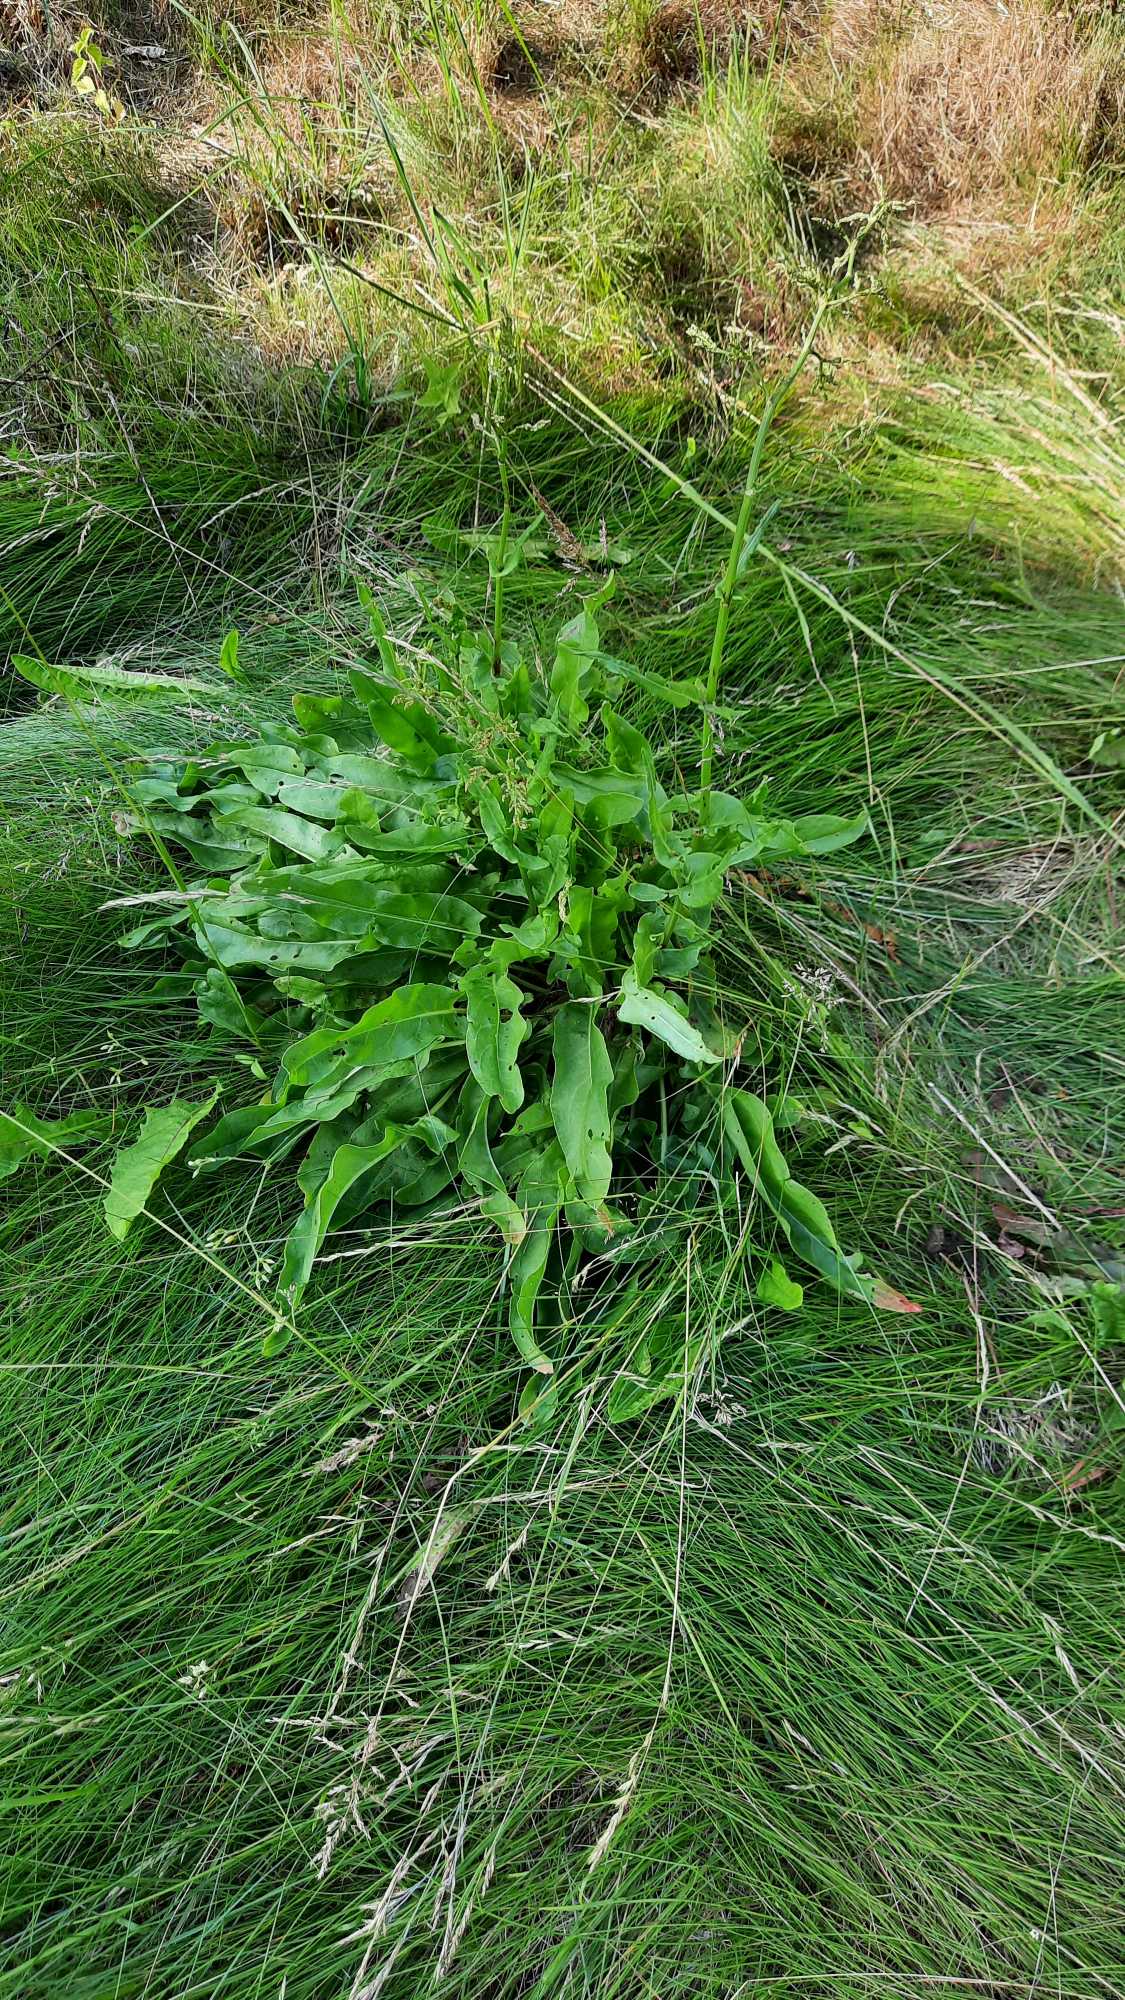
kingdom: Plantae
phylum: Tracheophyta
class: Magnoliopsida
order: Caryophyllales
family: Polygonaceae
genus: Rumex
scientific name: Rumex thyrsiflorus
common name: Dusk-syre
